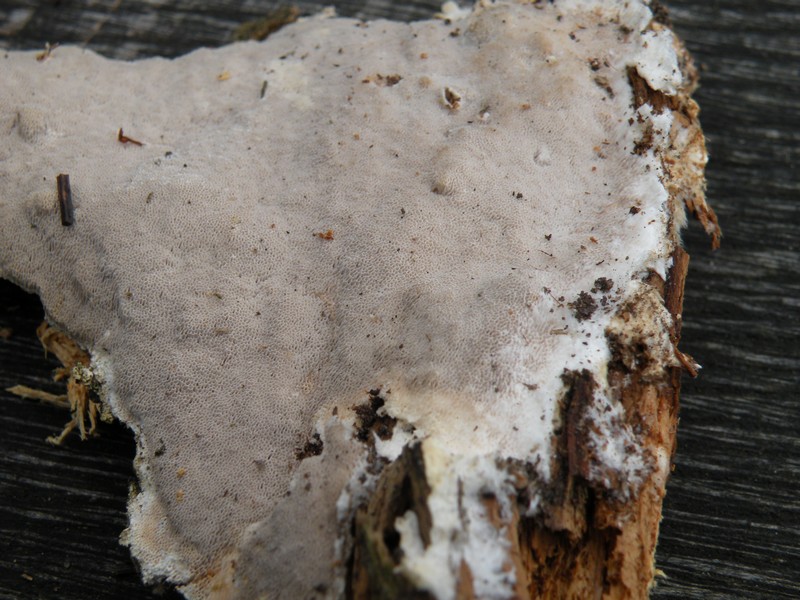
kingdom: Fungi
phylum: Basidiomycota
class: Agaricomycetes
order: Polyporales
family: Gelatoporiaceae
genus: Cinereomyces
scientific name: Cinereomyces lindbladii
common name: almindelig gråporesvamp
